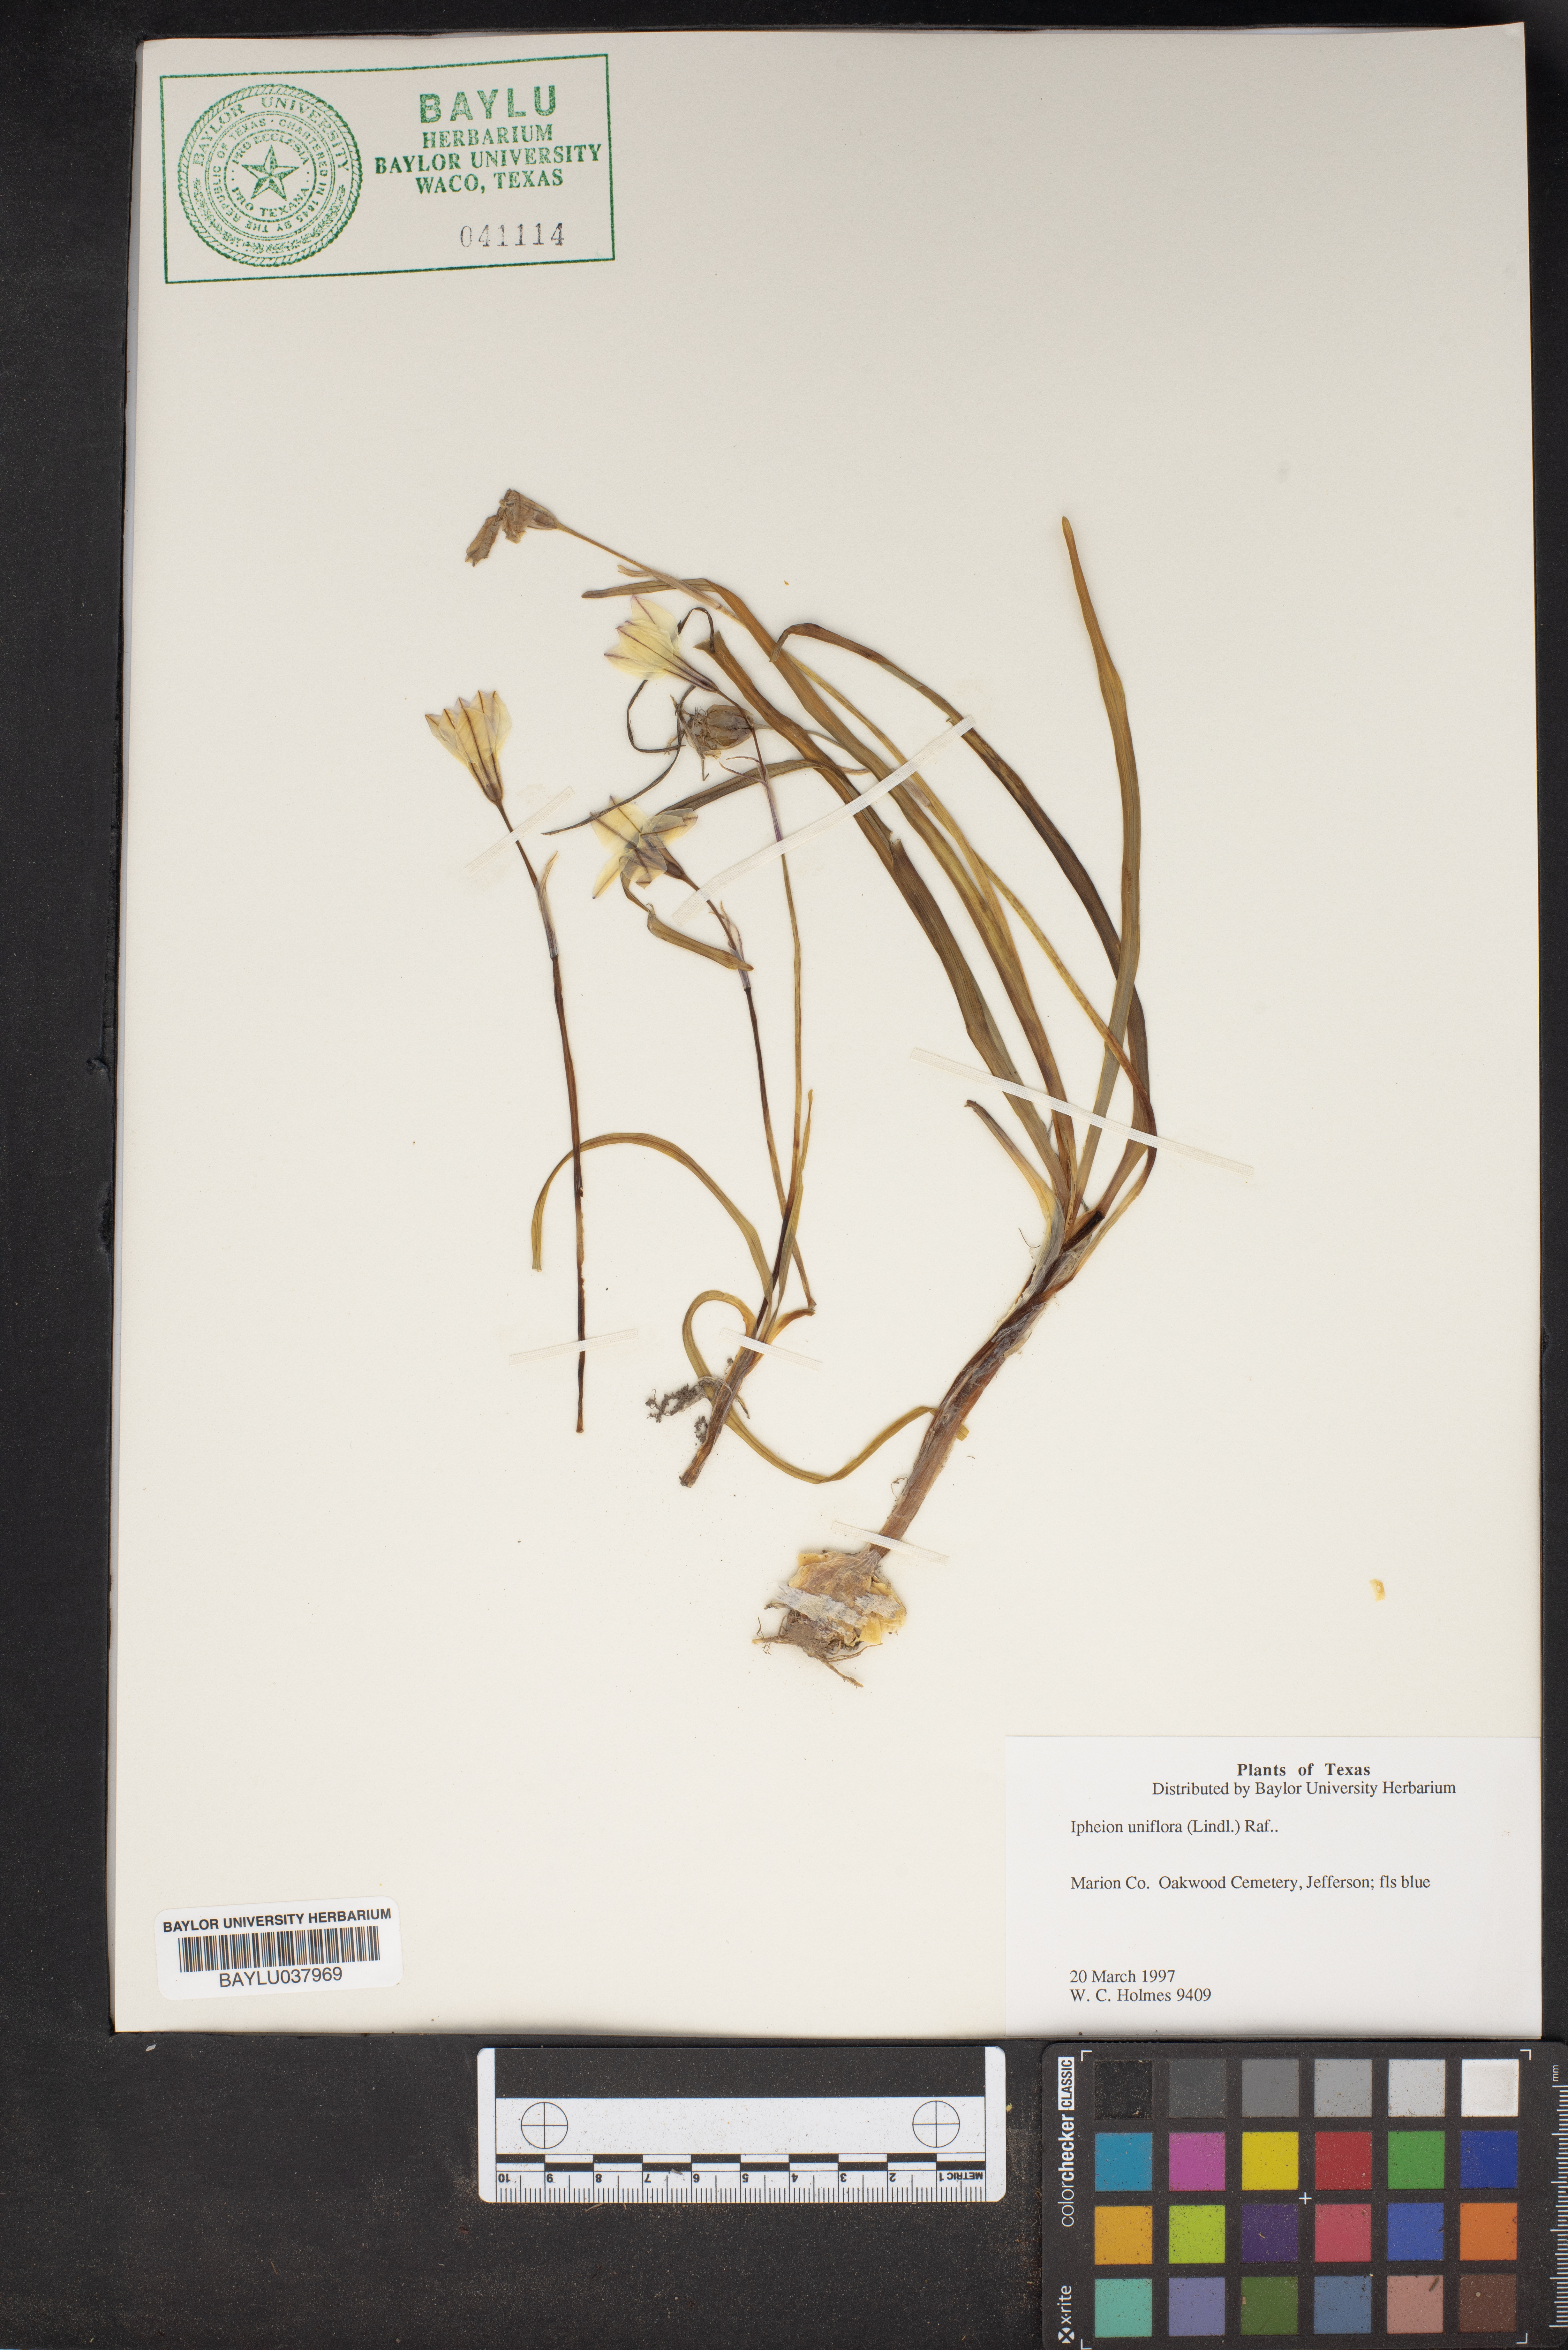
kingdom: Plantae
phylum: Tracheophyta
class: Liliopsida
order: Asparagales
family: Amaryllidaceae
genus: Ipheion
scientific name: Ipheion uniflorum
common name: Spring starflower
